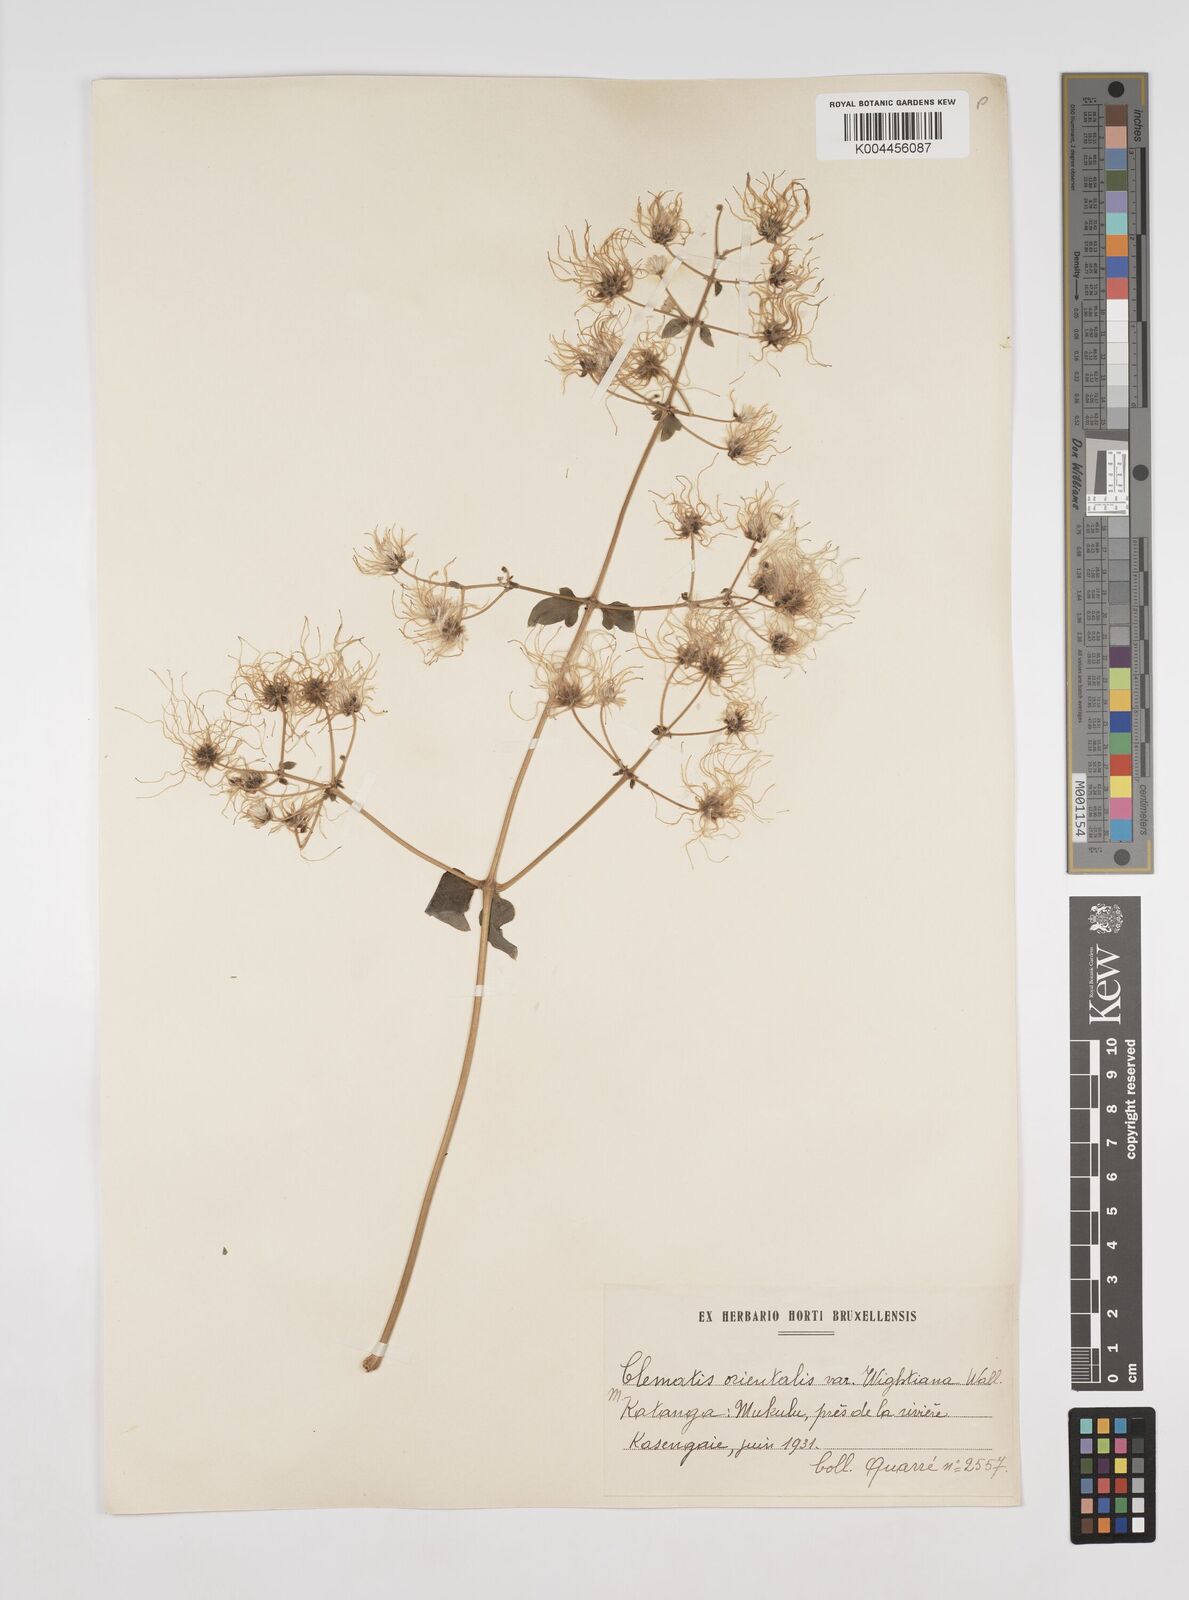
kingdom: Plantae
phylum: Tracheophyta
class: Magnoliopsida
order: Ranunculales
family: Ranunculaceae
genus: Clematis
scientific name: Clematis orientalis
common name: Oriental virgin's-bower
